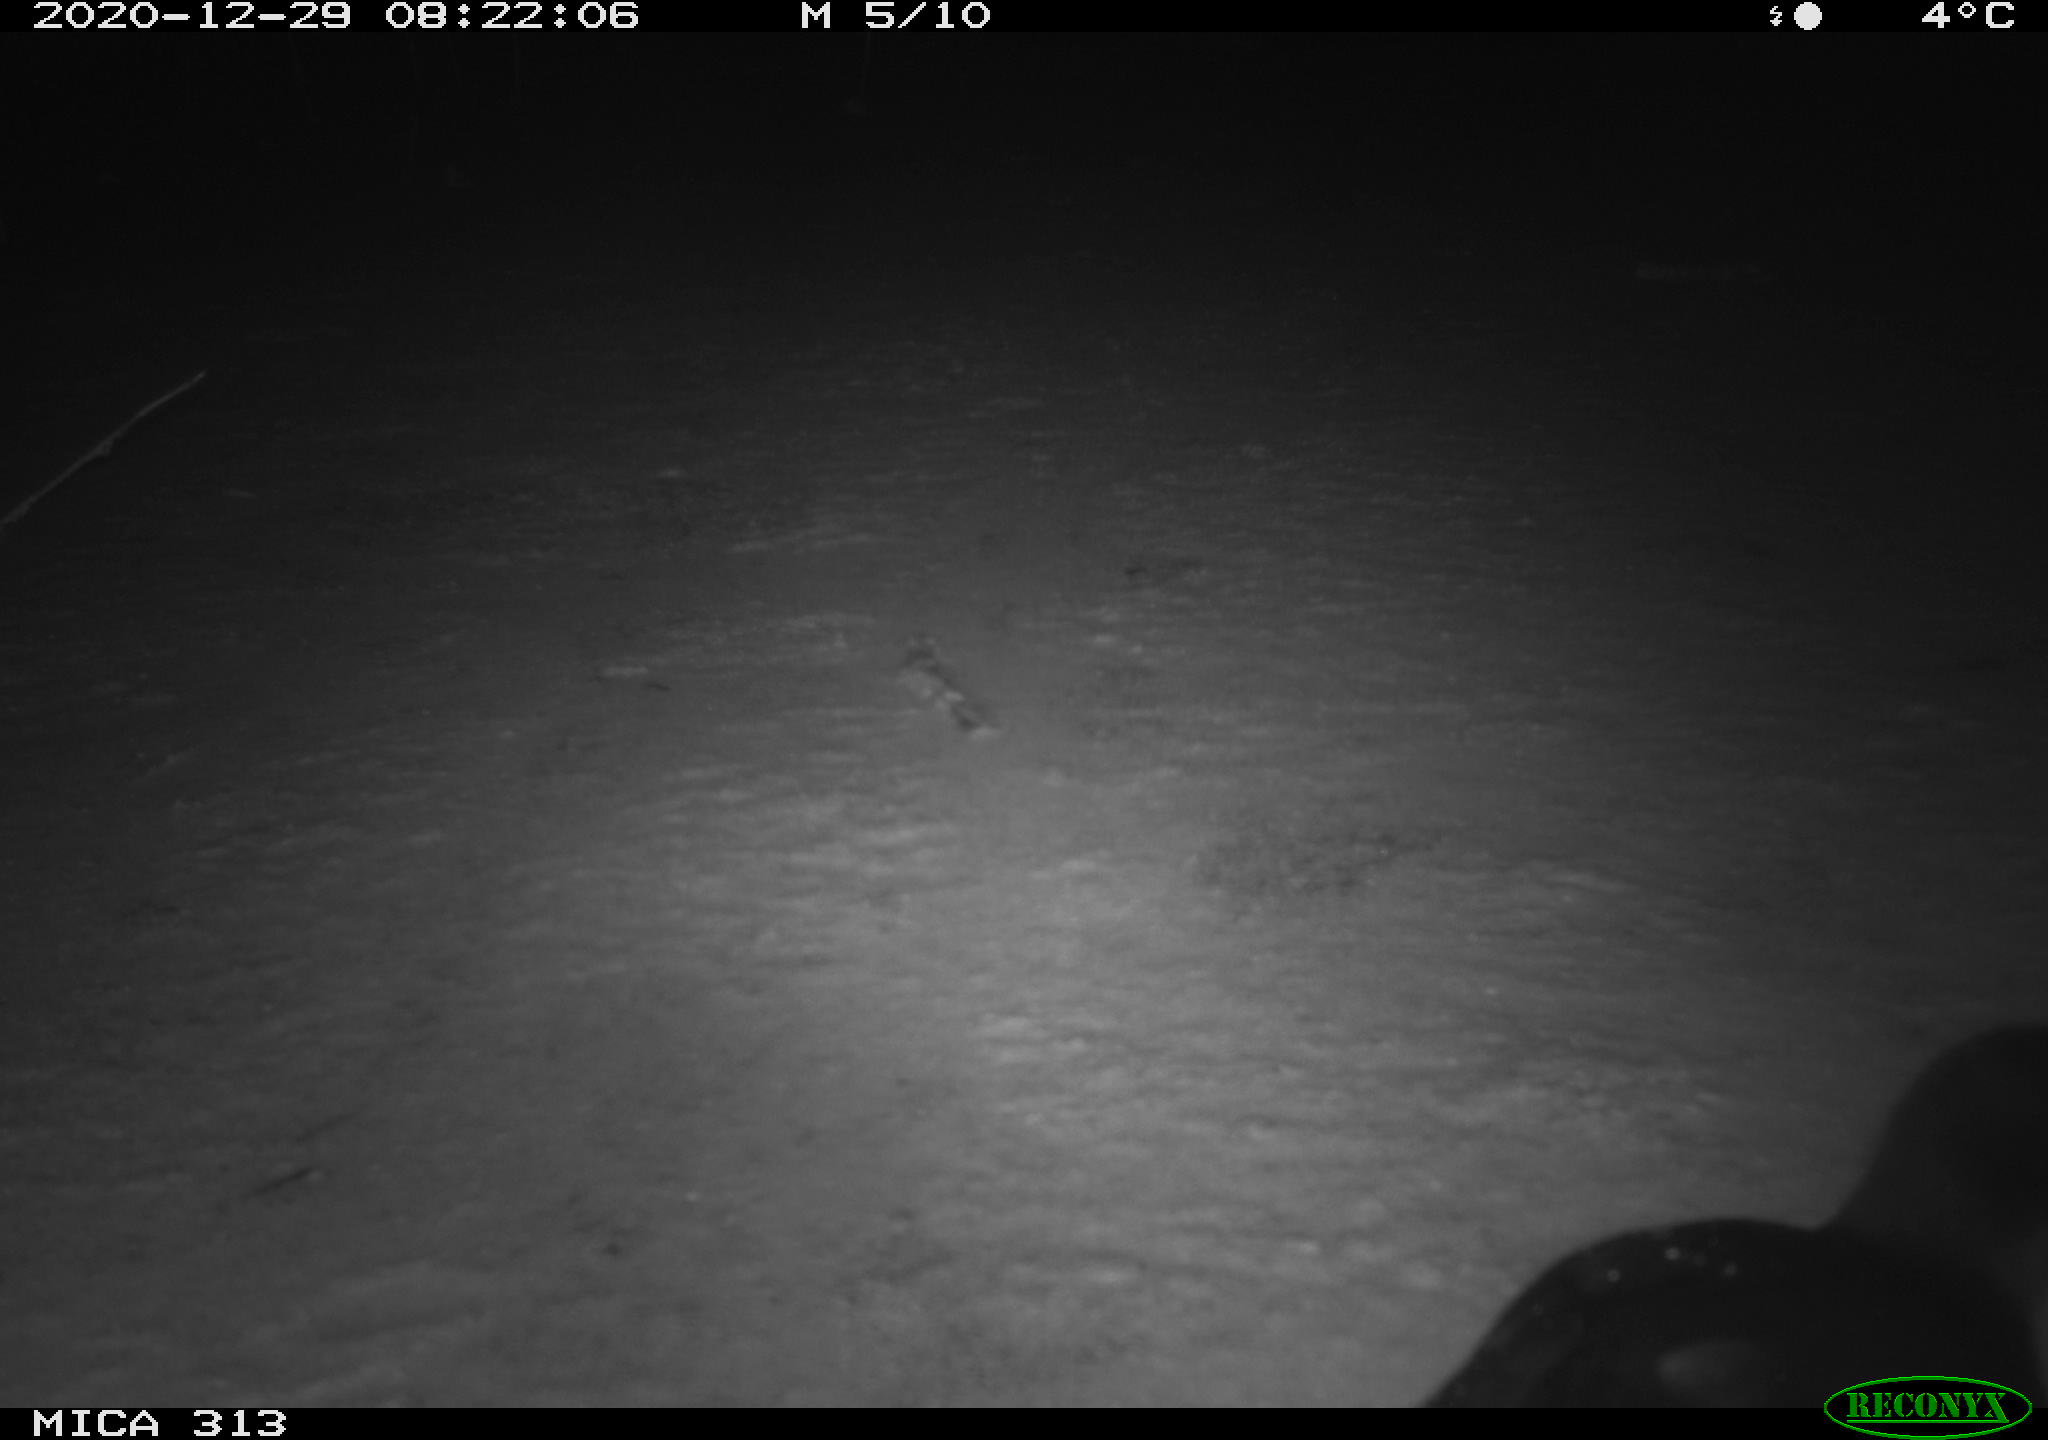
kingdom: Animalia
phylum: Chordata
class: Aves
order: Gruiformes
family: Rallidae
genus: Fulica
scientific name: Fulica atra
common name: Eurasian coot
